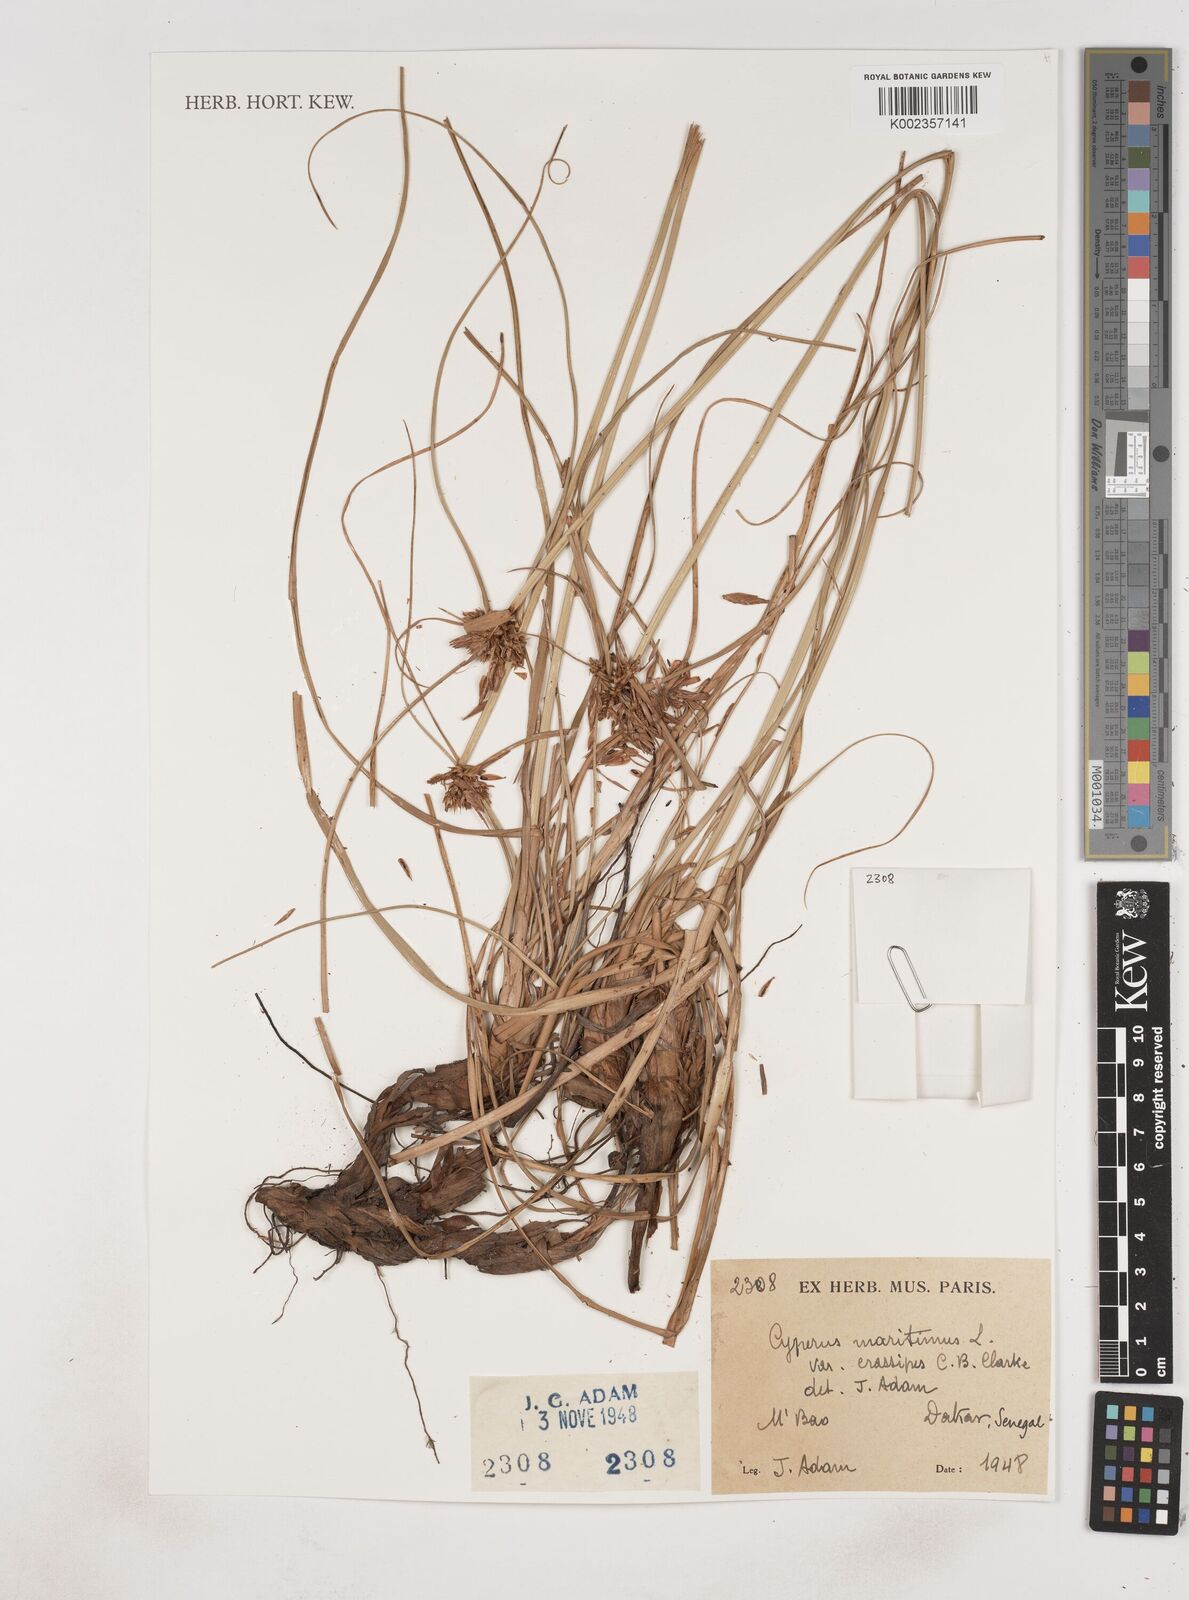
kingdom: Plantae
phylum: Tracheophyta
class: Liliopsida
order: Poales
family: Cyperaceae
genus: Cyperus
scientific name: Cyperus crassipes
